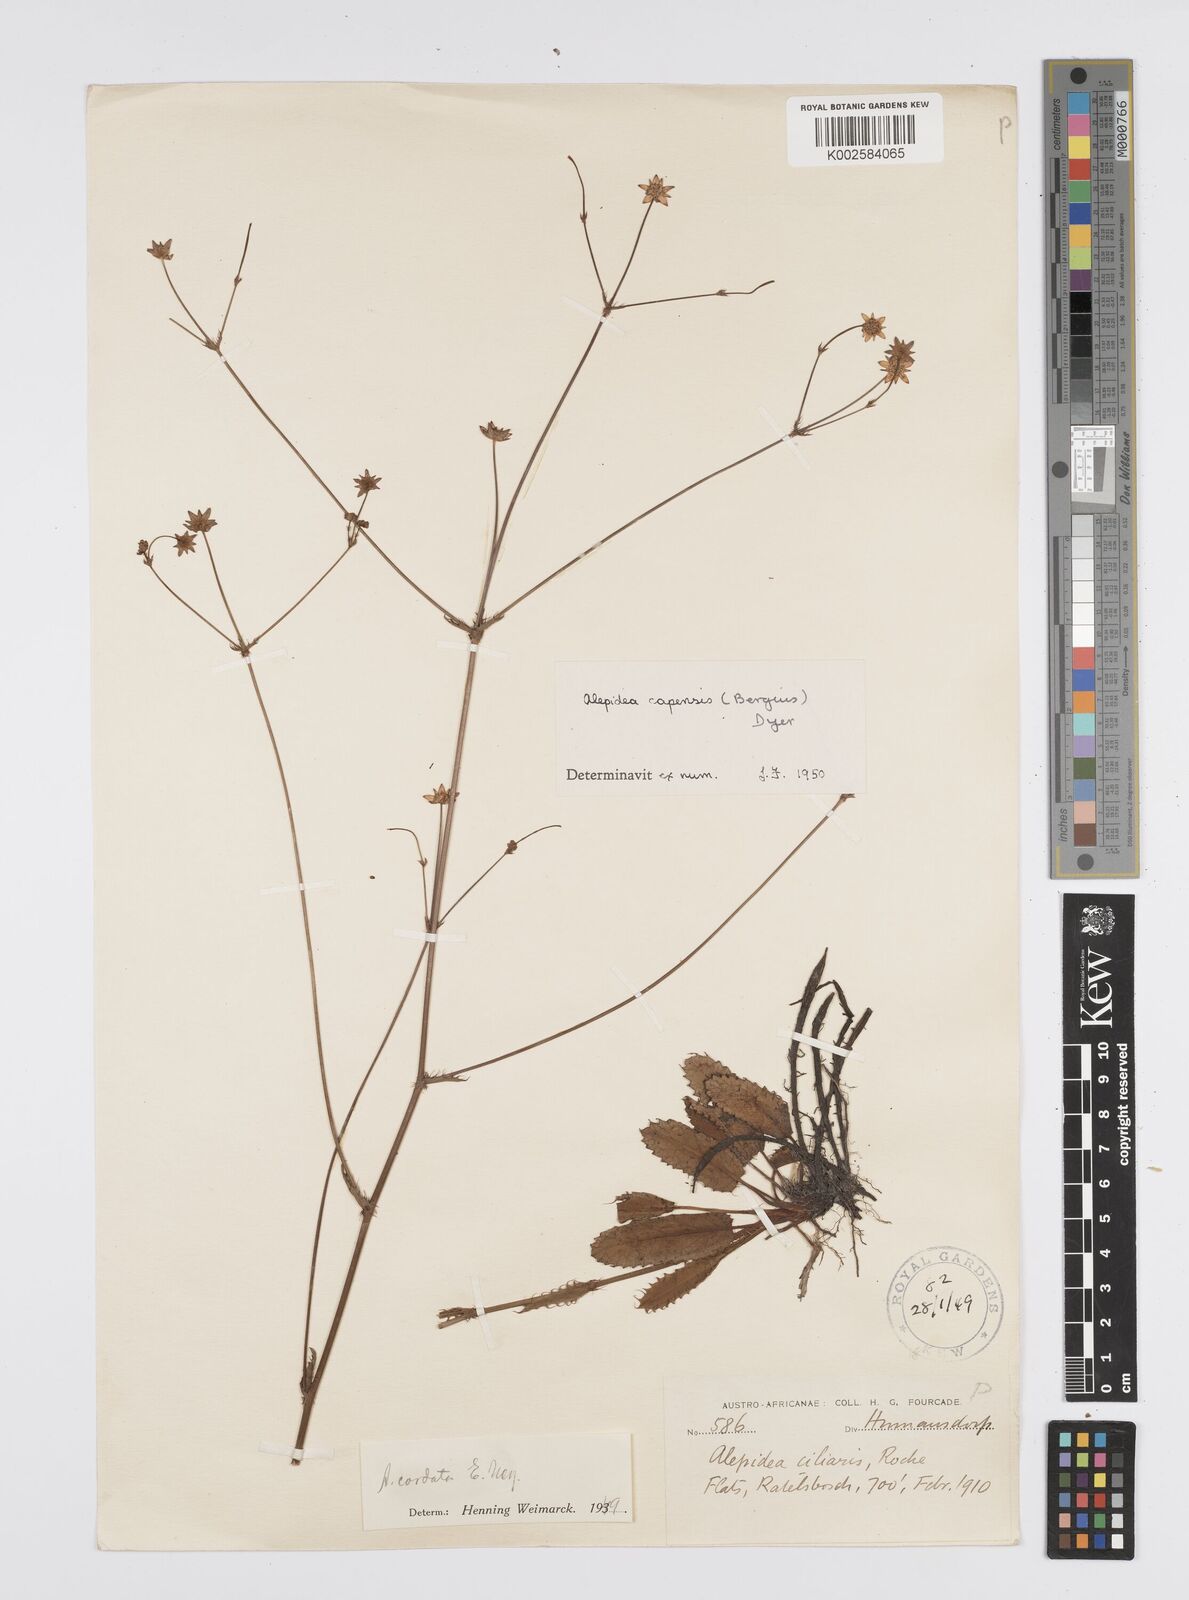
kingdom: Plantae
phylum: Tracheophyta
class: Magnoliopsida
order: Apiales
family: Apiaceae
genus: Alepidea
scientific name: Alepidea capensis
